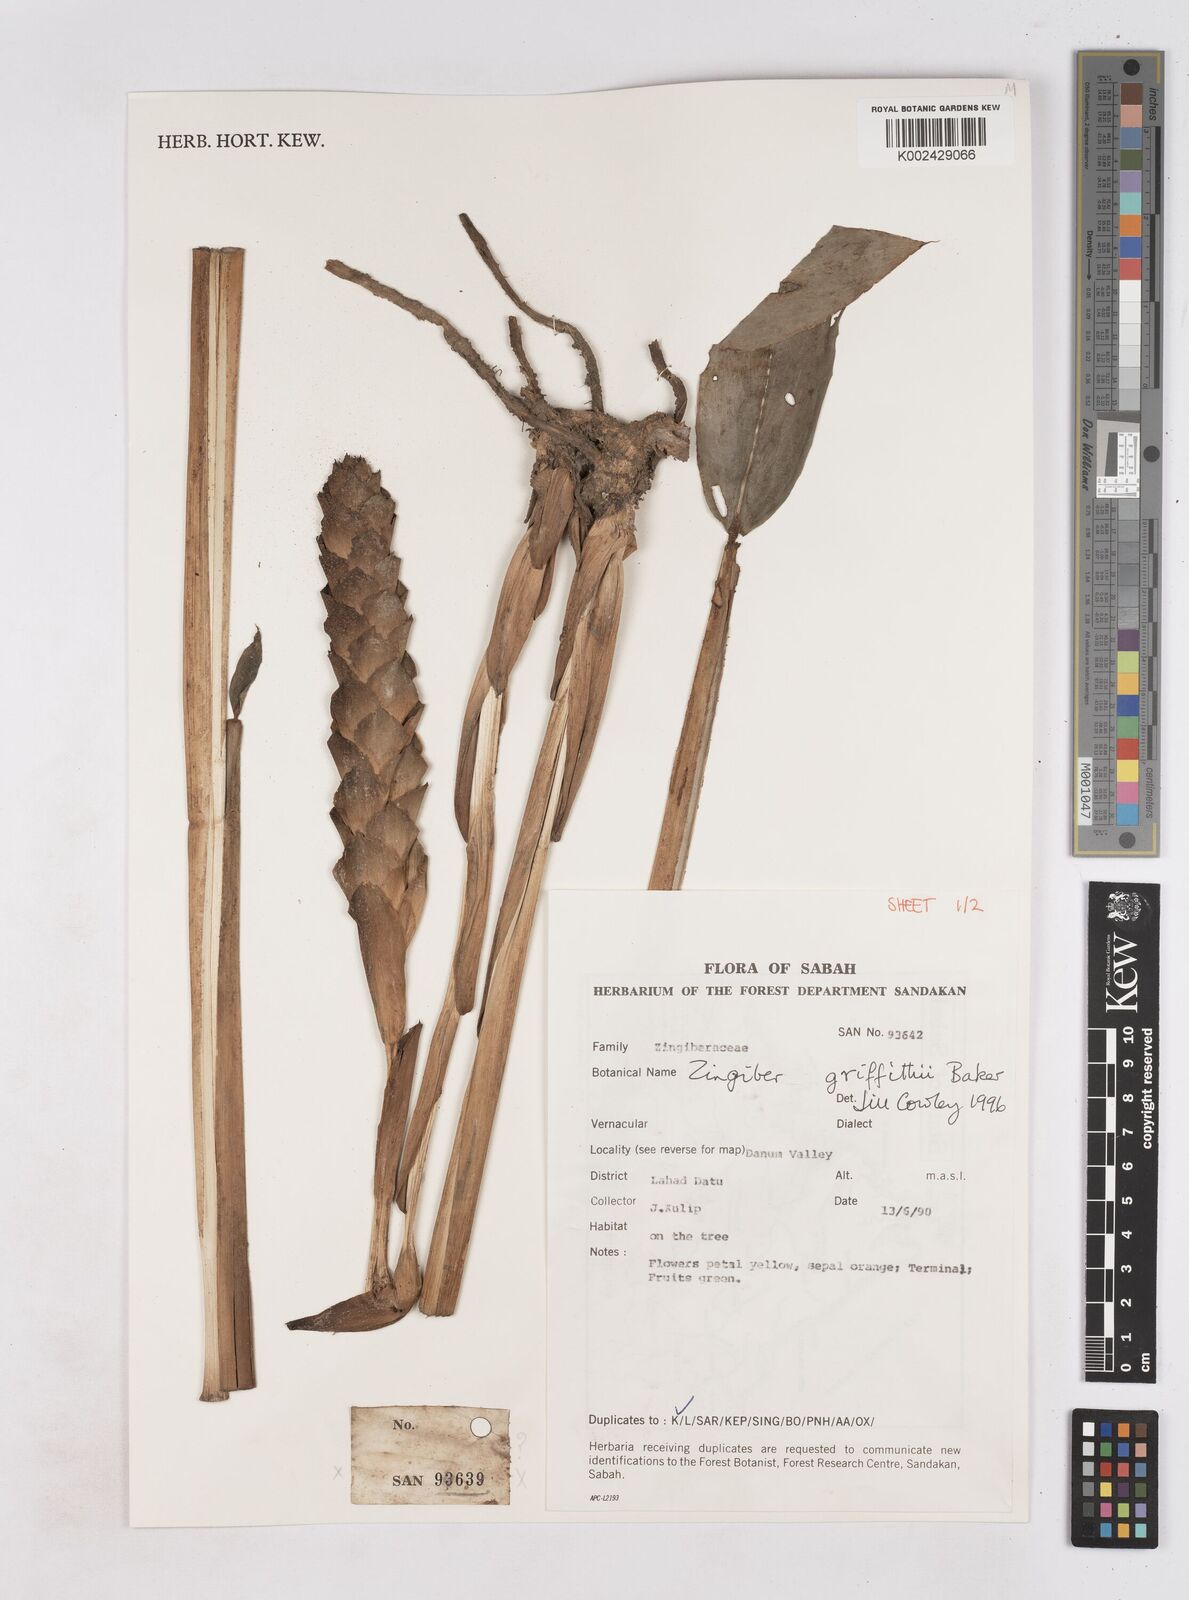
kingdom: Plantae
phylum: Tracheophyta
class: Liliopsida
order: Zingiberales
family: Zingiberaceae
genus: Zingiber
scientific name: Zingiber griffithii
